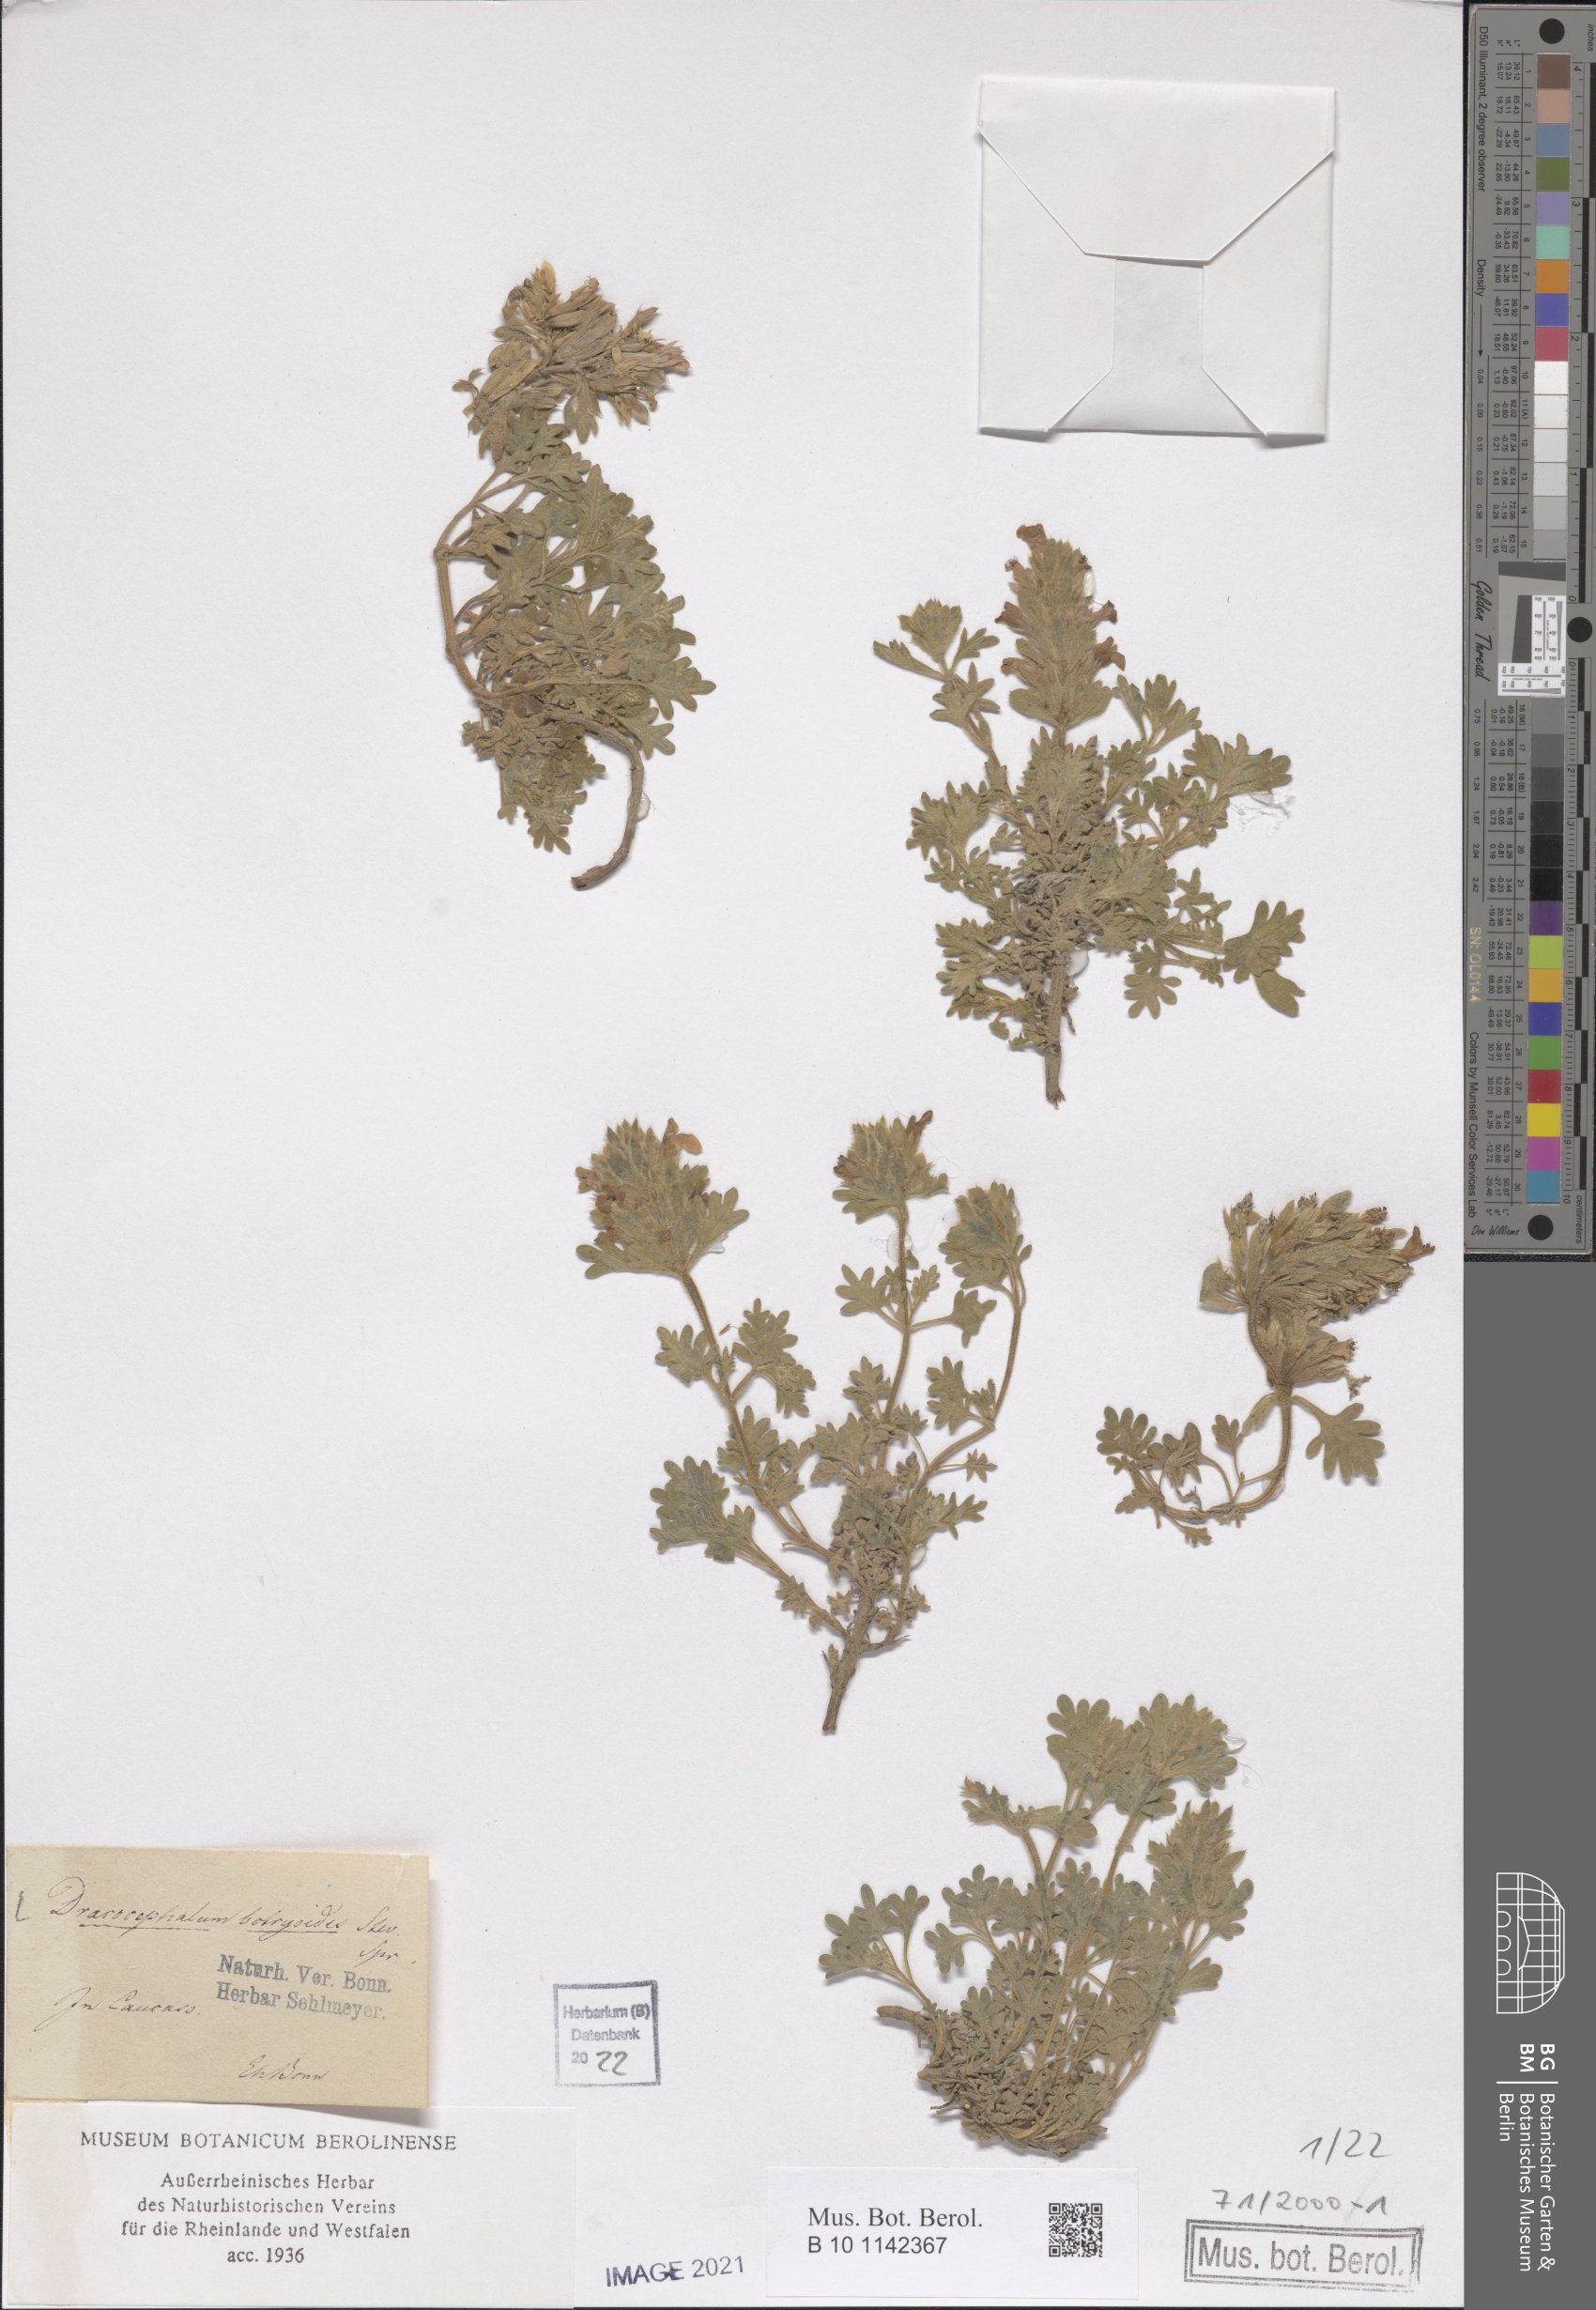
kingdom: Plantae
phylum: Tracheophyta
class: Magnoliopsida
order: Lamiales
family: Lamiaceae
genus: Dracocephalum
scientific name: Dracocephalum botryoides
